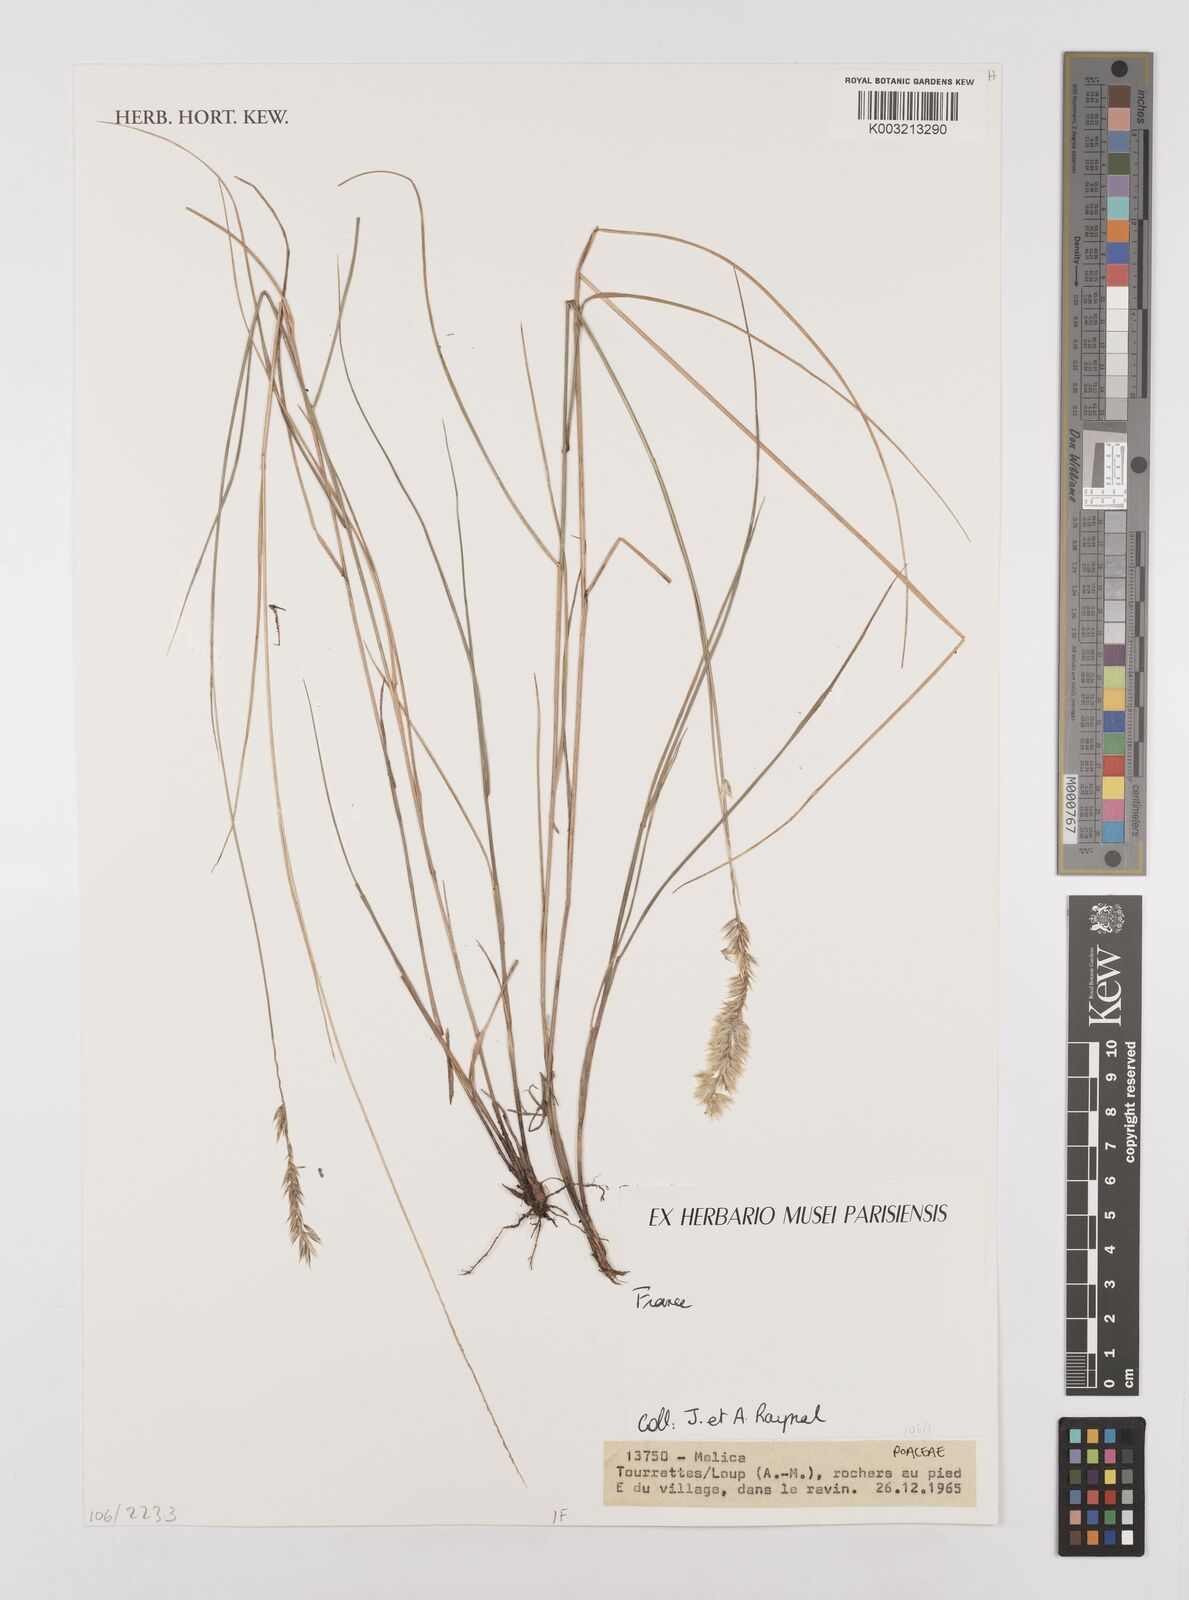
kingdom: Plantae
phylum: Tracheophyta
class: Liliopsida
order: Poales
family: Poaceae
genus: Melica
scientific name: Melica
